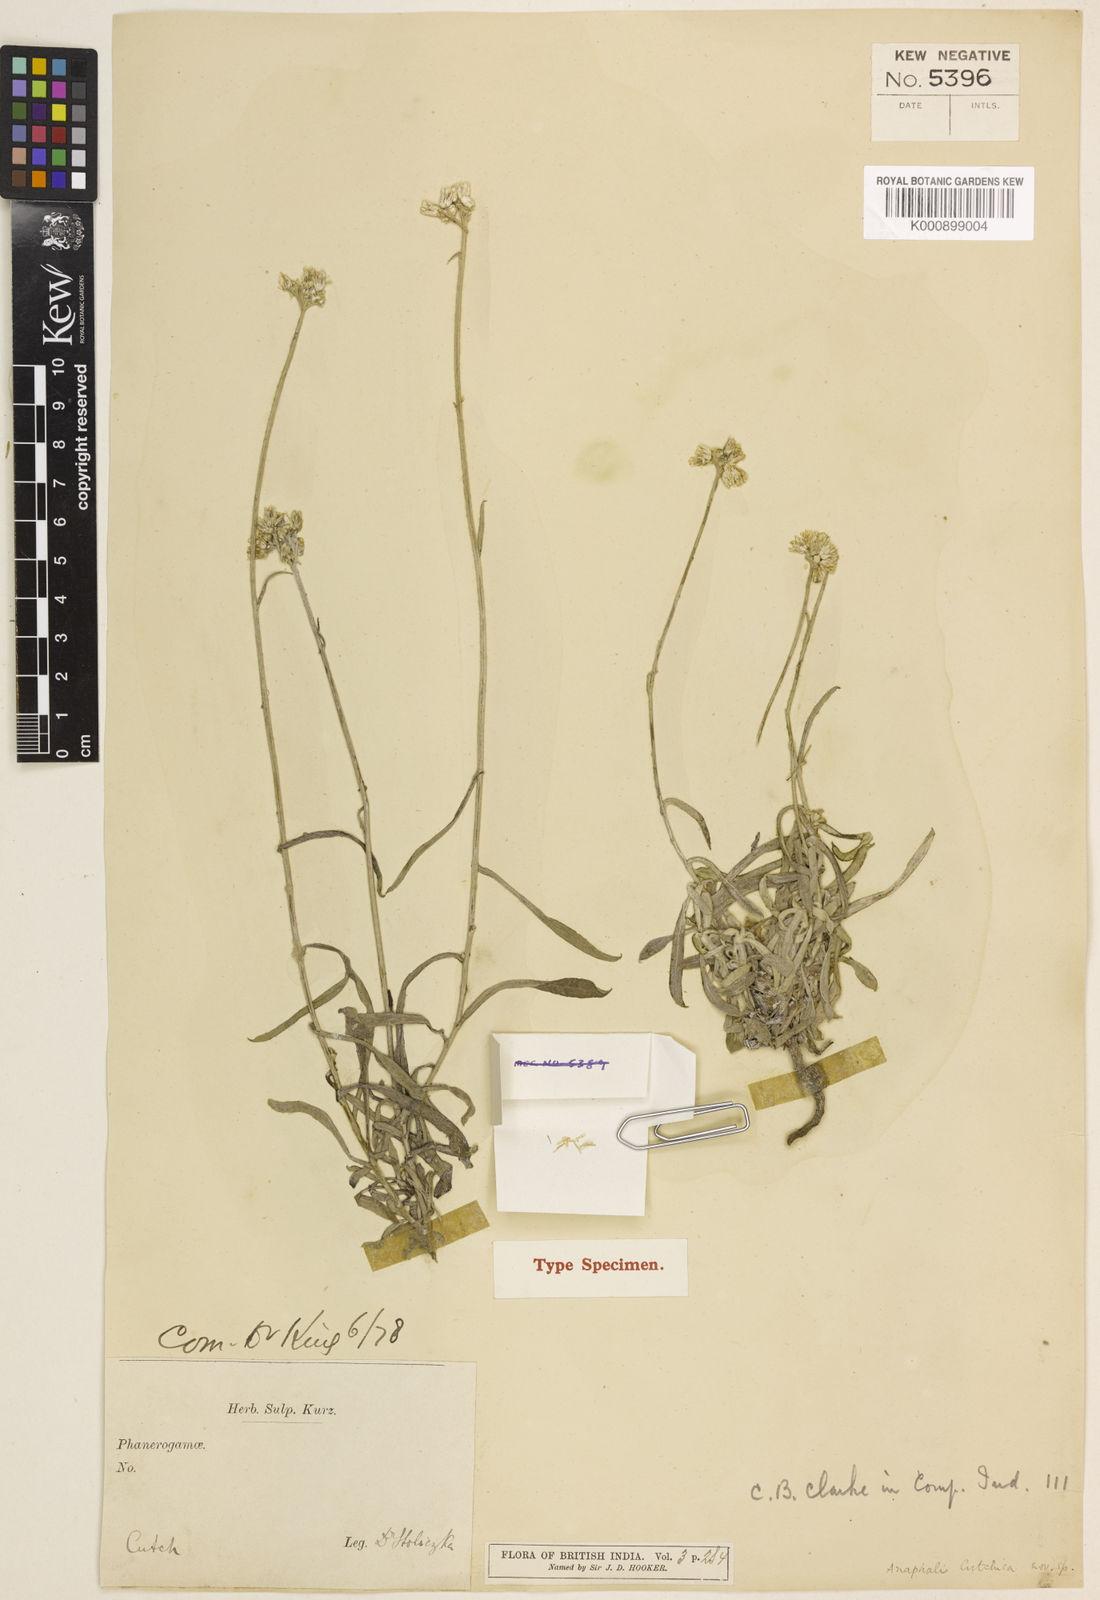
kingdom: Plantae
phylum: Tracheophyta
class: Magnoliopsida
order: Asterales
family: Asteraceae
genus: Helichrysum
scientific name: Helichrysum cutchicum
